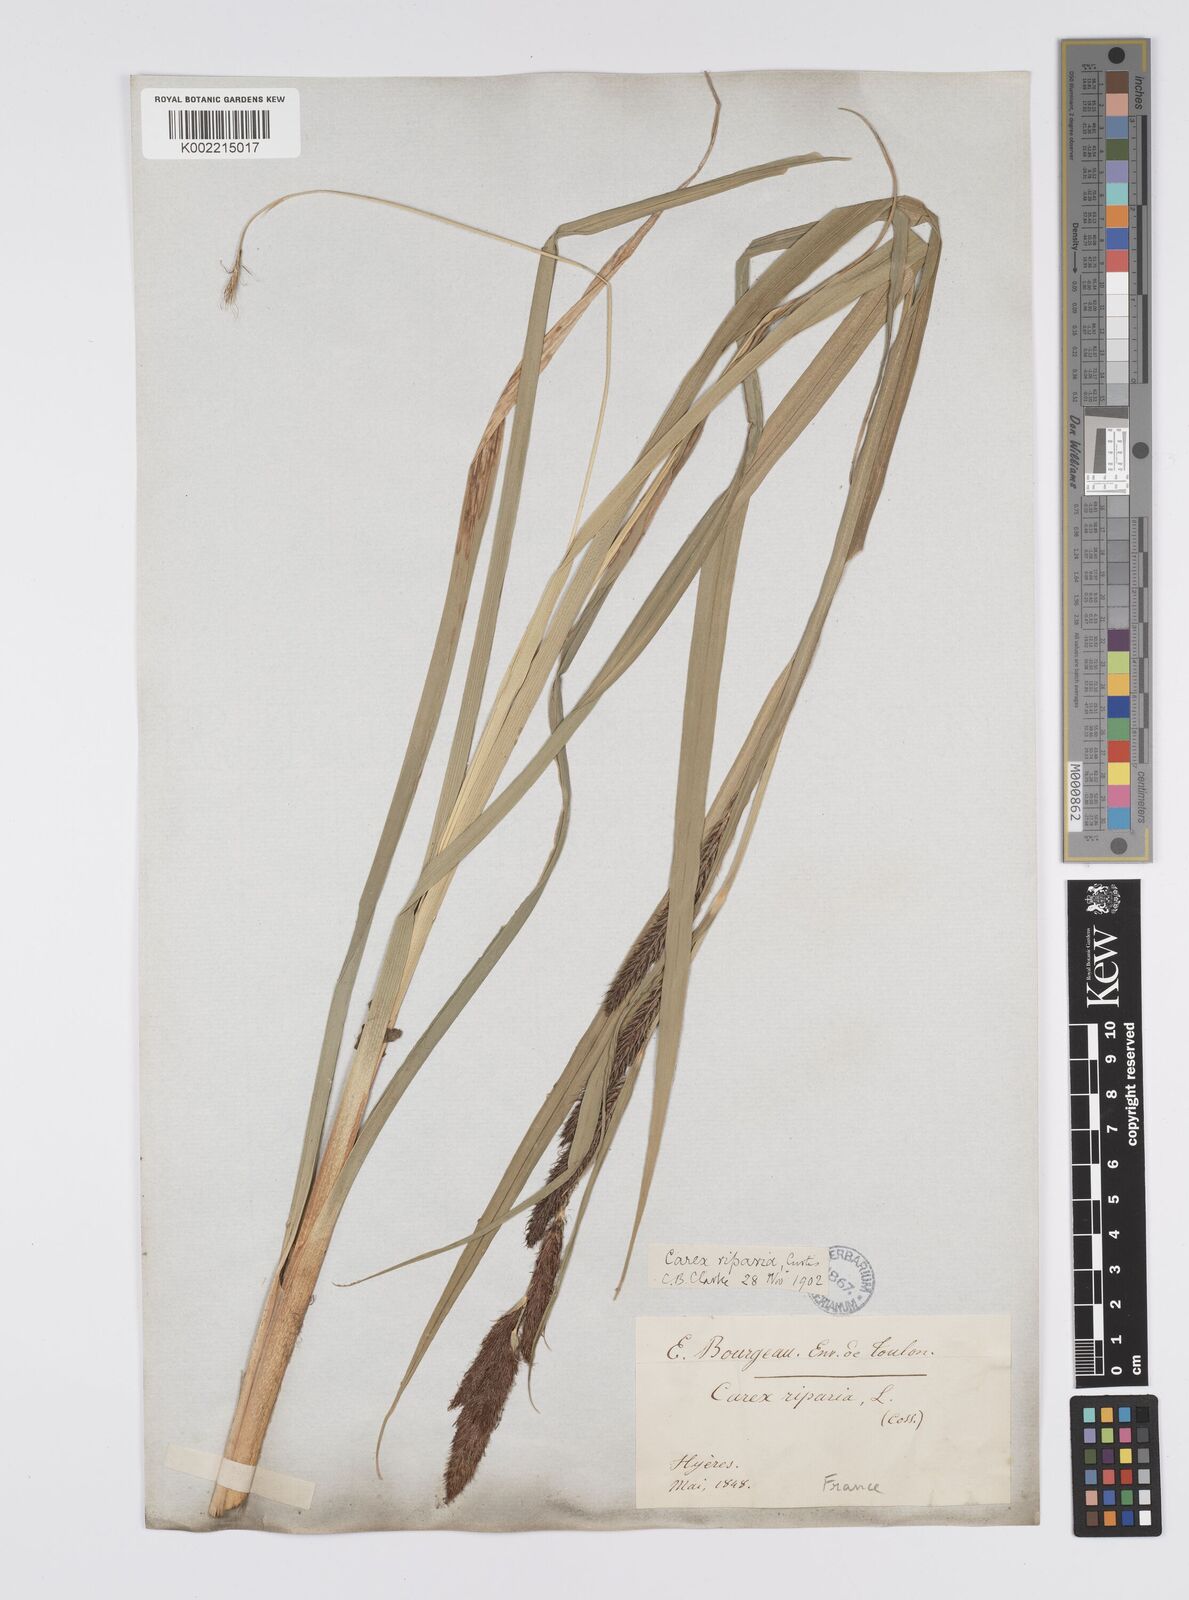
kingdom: Plantae
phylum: Tracheophyta
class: Liliopsida
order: Poales
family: Cyperaceae
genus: Carex
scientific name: Carex riparia
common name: Greater pond-sedge
